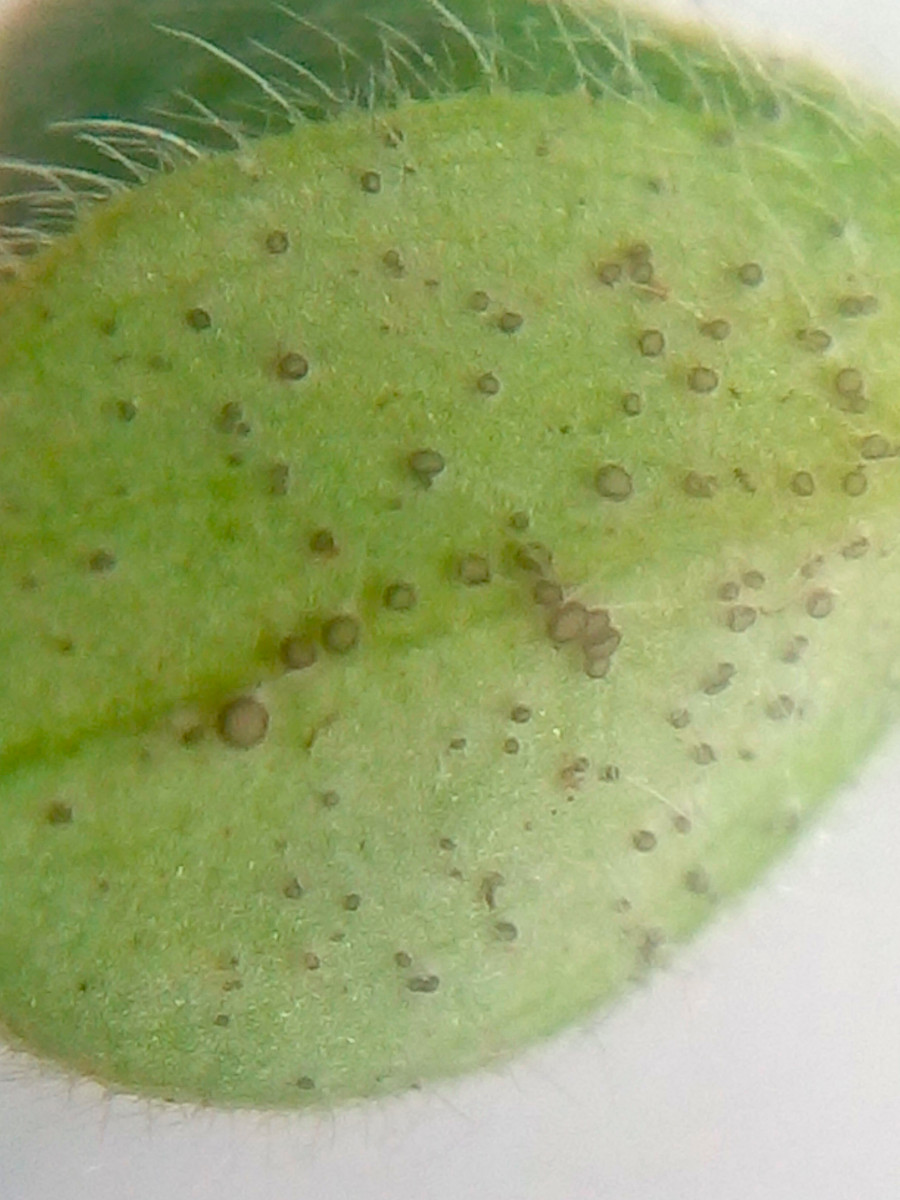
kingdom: Fungi
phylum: Ascomycota
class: Leotiomycetes
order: Helotiales
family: Drepanopezizaceae
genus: Leptotrochila
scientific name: Leptotrochila cerastiorum
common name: hønsetarm-bladskive
